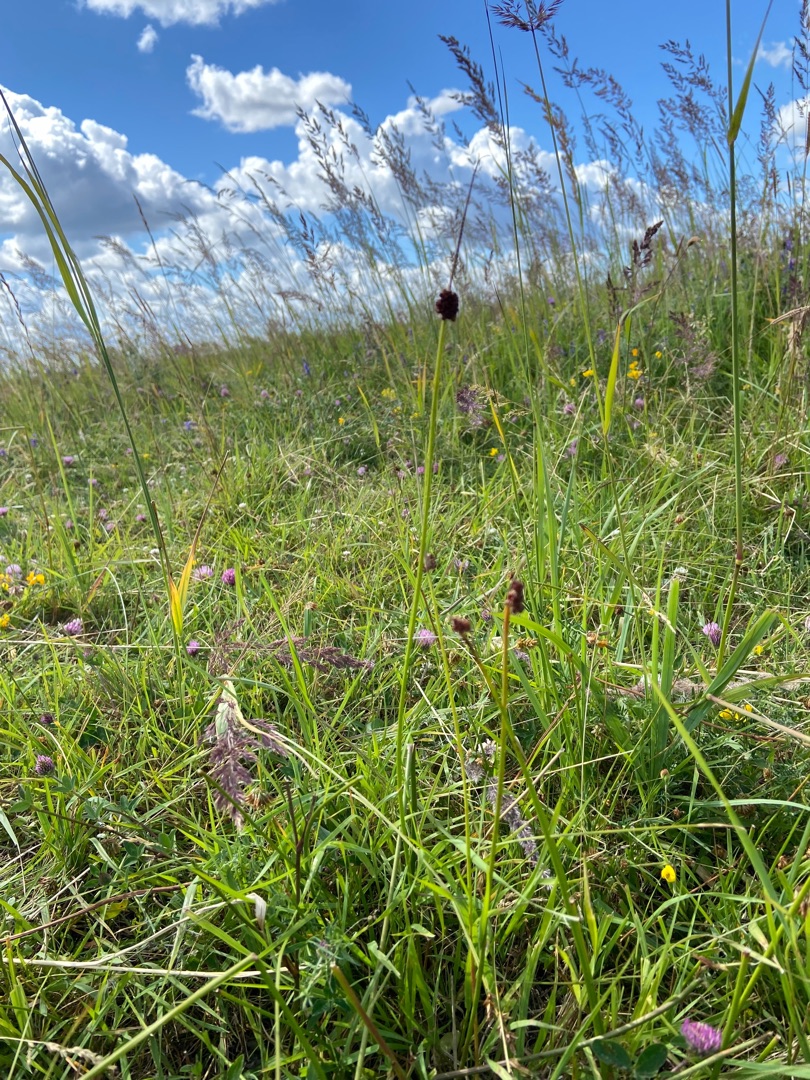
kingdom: Plantae
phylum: Tracheophyta
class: Liliopsida
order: Poales
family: Juncaceae
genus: Juncus
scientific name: Juncus conglomeratus
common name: Knop-siv
